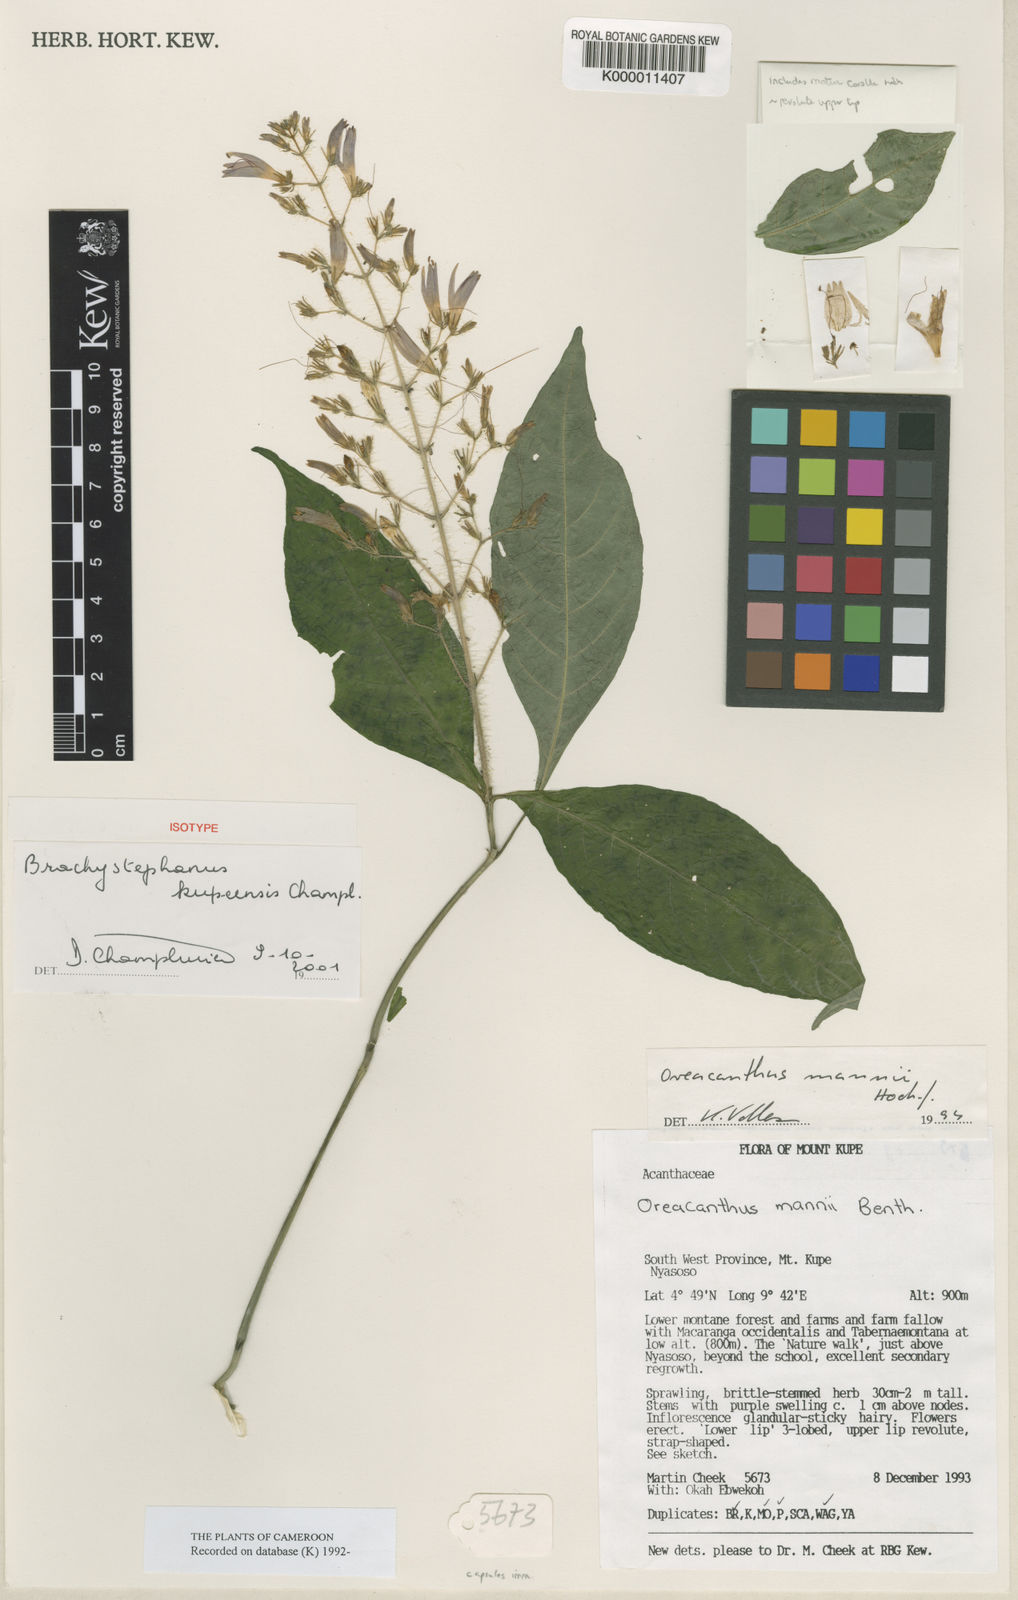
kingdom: Plantae
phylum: Tracheophyta
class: Magnoliopsida
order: Lamiales
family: Acanthaceae
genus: Brachystephanus
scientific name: Brachystephanus kupeensis
